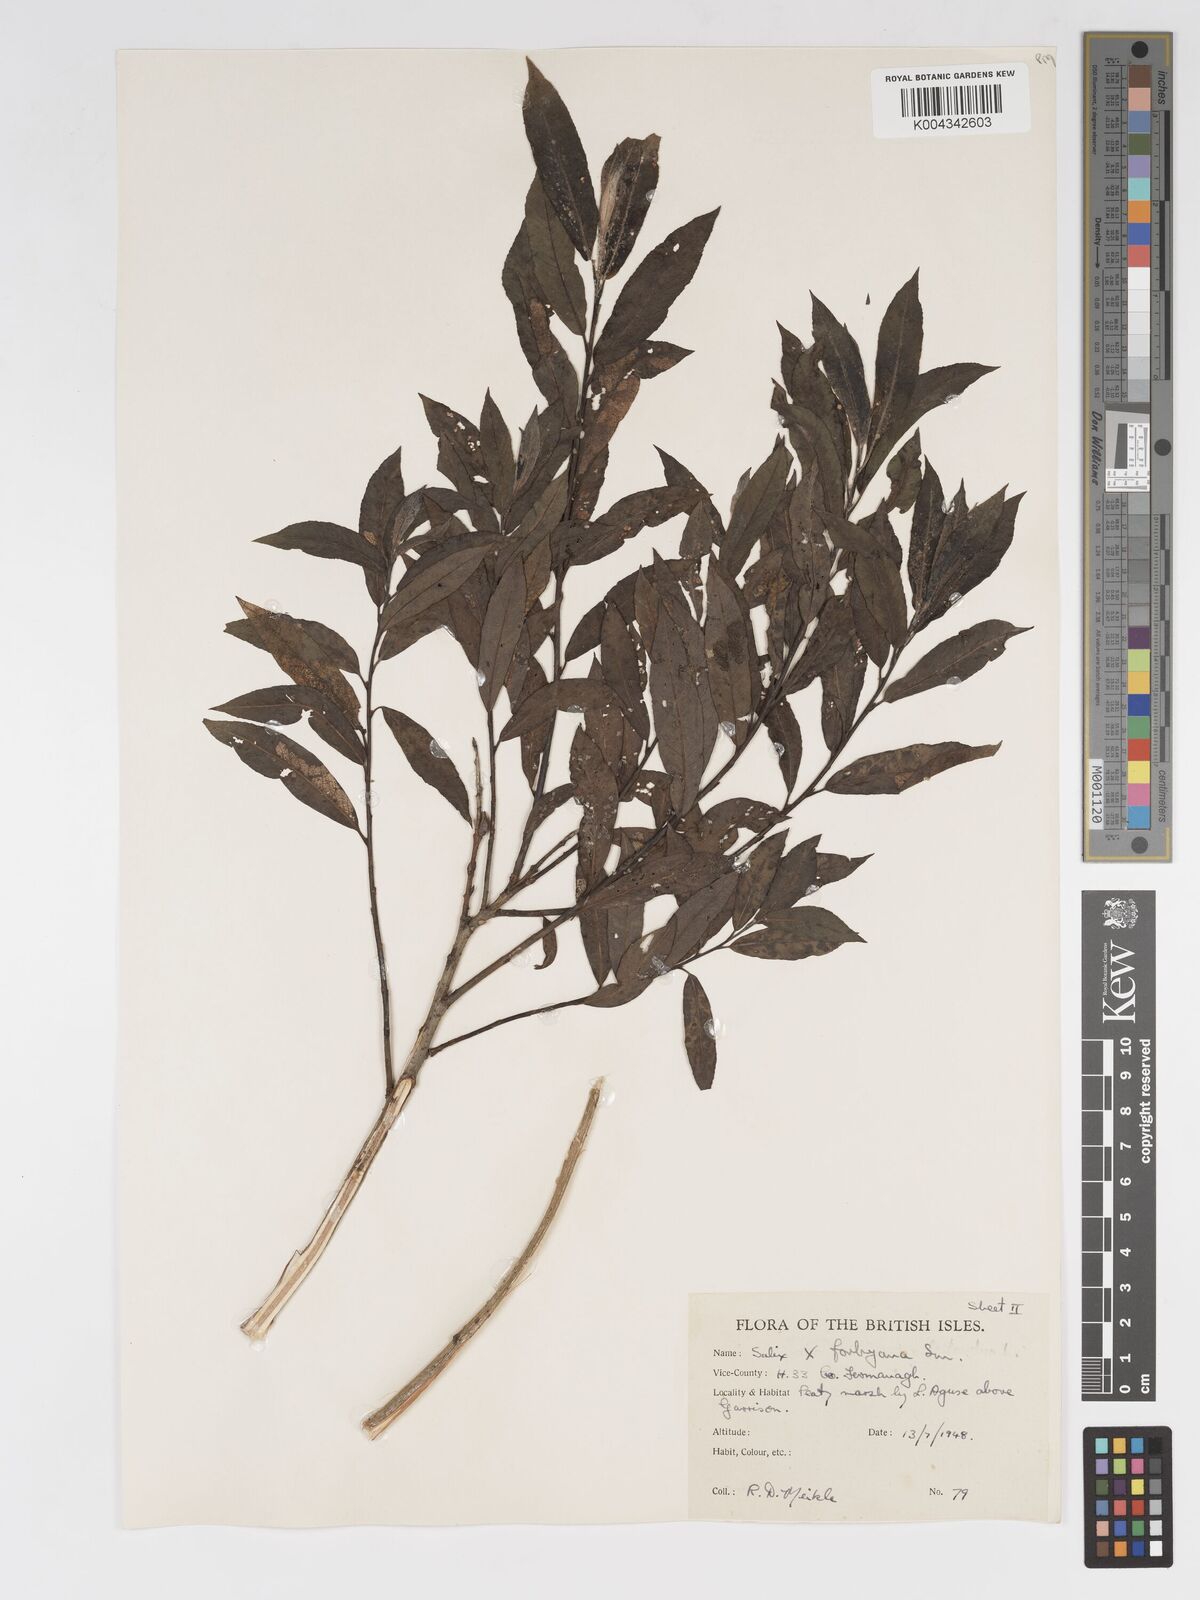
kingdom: Plantae
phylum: Tracheophyta
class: Magnoliopsida
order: Malpighiales
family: Salicaceae
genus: Salix
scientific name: Salix cinerea
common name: Common sallow
